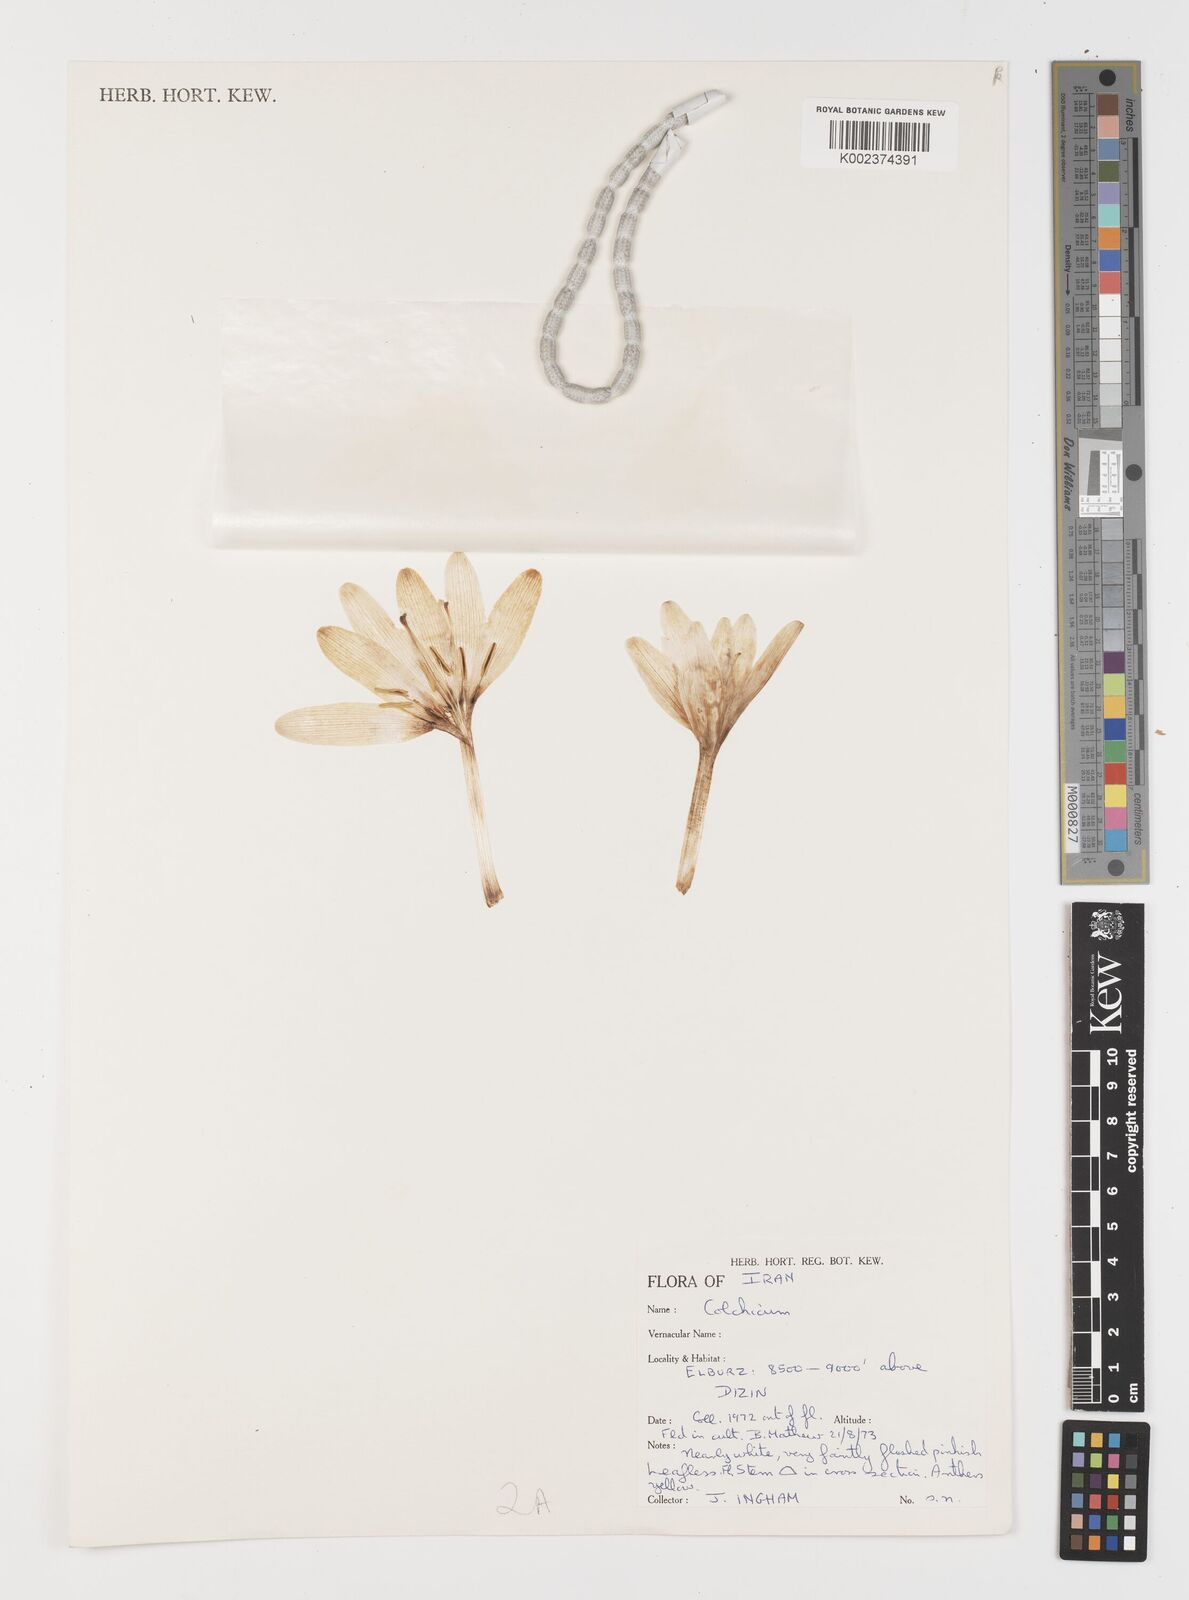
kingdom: Plantae
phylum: Tracheophyta
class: Liliopsida
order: Liliales
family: Colchicaceae
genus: Colchicum
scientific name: Colchicum
